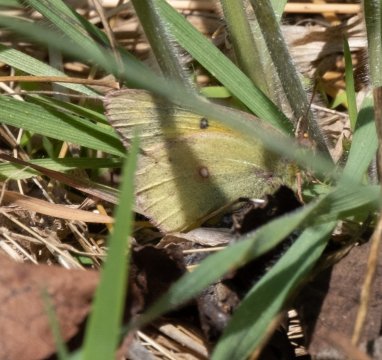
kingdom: Animalia
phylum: Arthropoda
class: Insecta
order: Lepidoptera
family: Pieridae
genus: Colias
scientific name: Colias eurytheme
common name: Orange Sulphur
